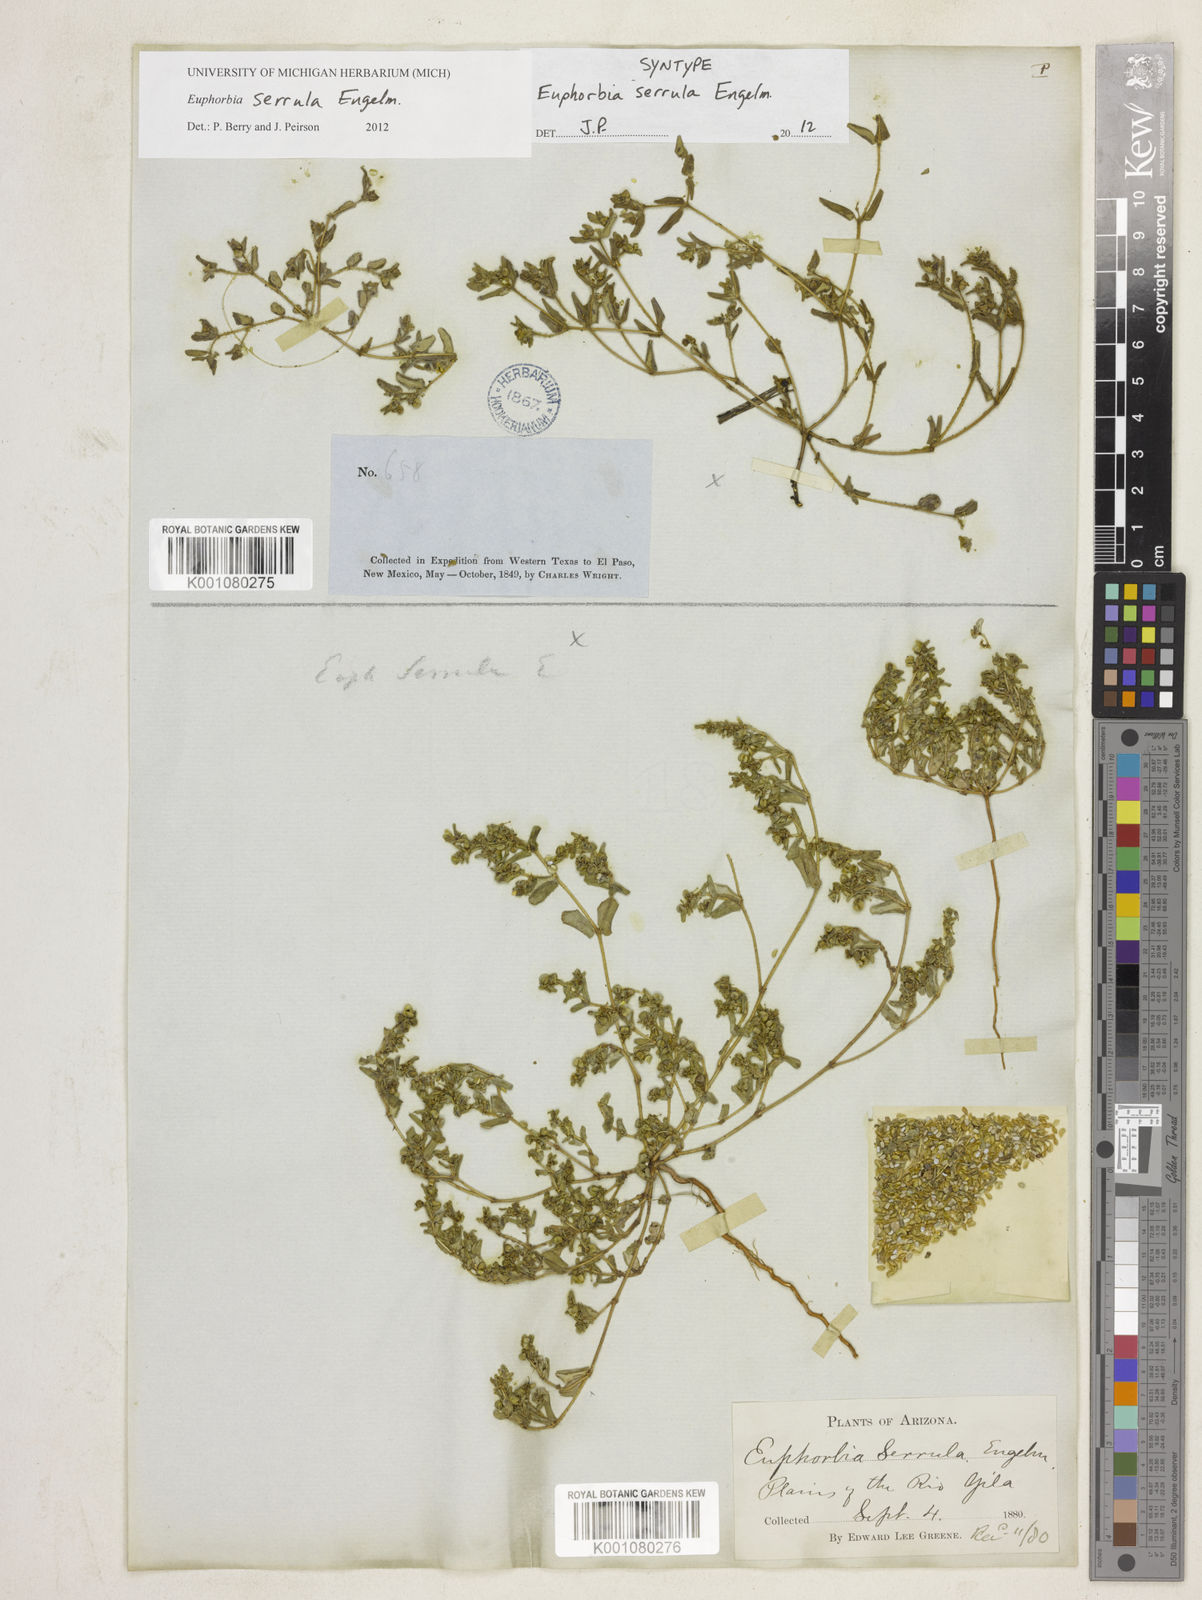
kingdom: Plantae
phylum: Tracheophyta
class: Magnoliopsida
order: Malpighiales
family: Euphorbiaceae
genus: Euphorbia
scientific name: Euphorbia serrula
